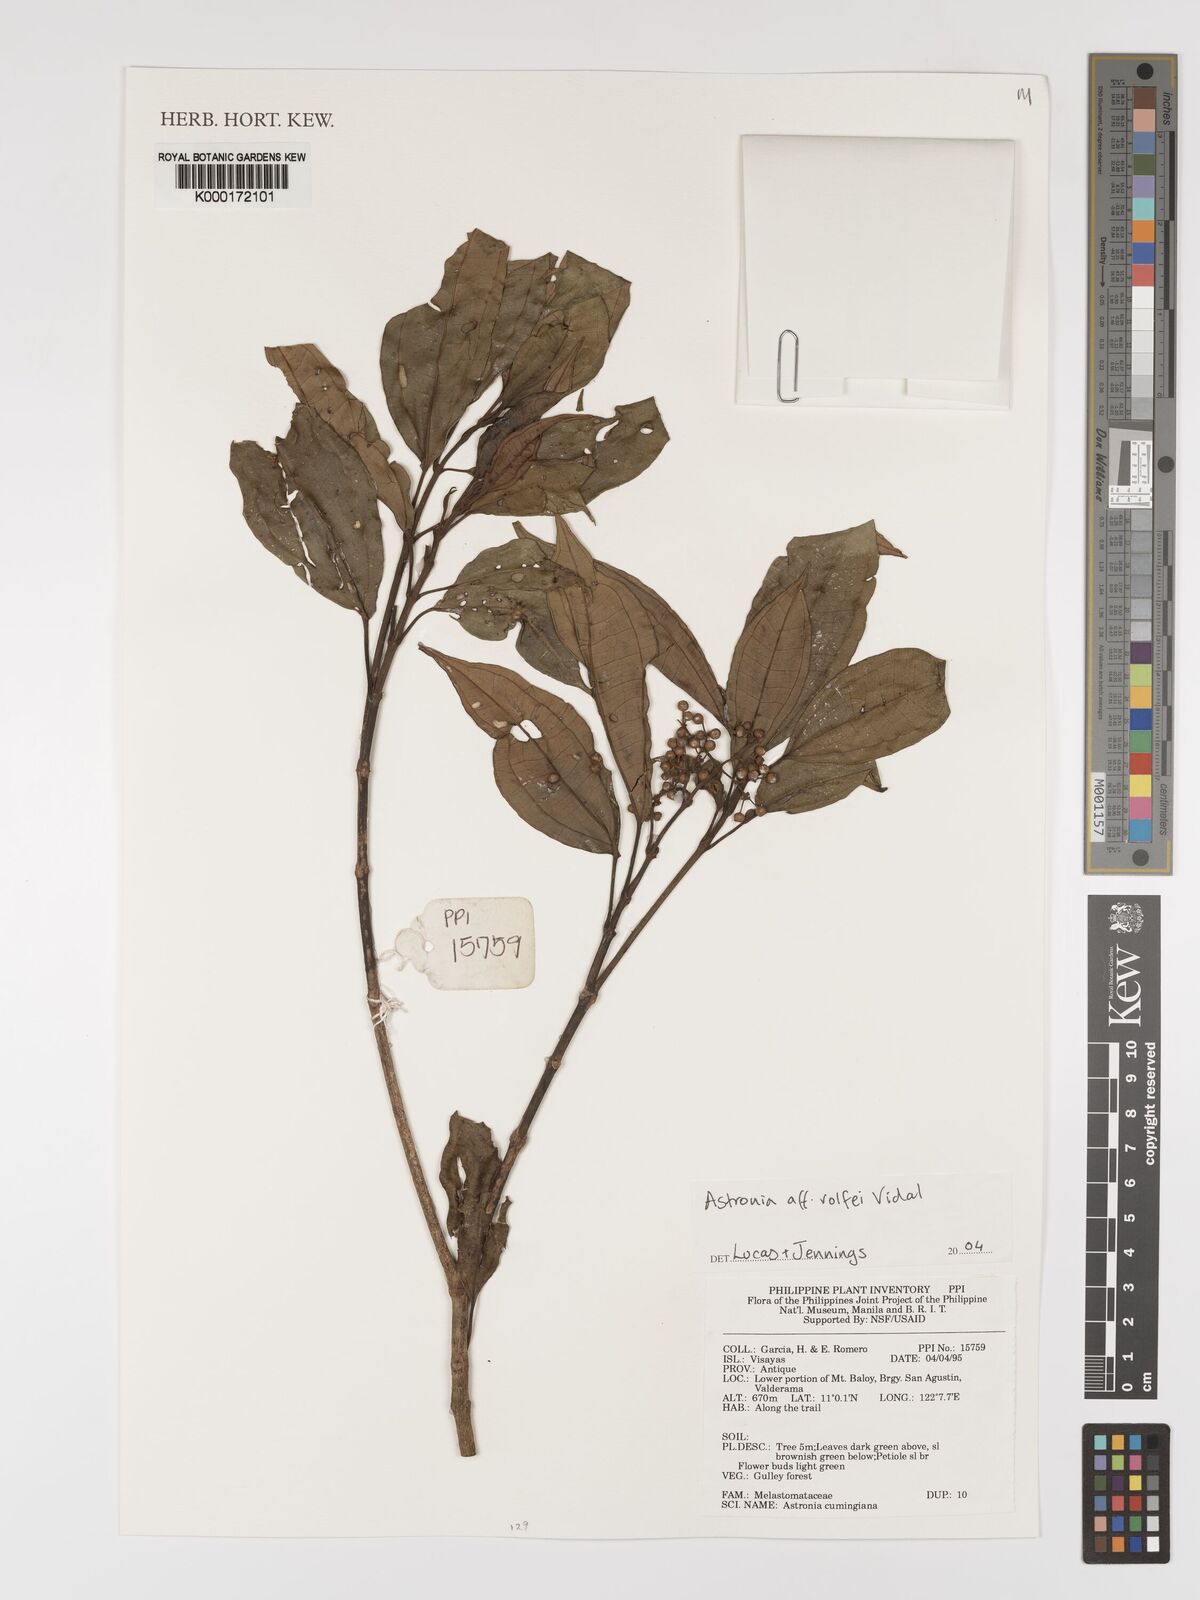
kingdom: Plantae
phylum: Tracheophyta
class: Magnoliopsida
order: Myrtales
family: Melastomataceae
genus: Astronia
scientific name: Astronia
